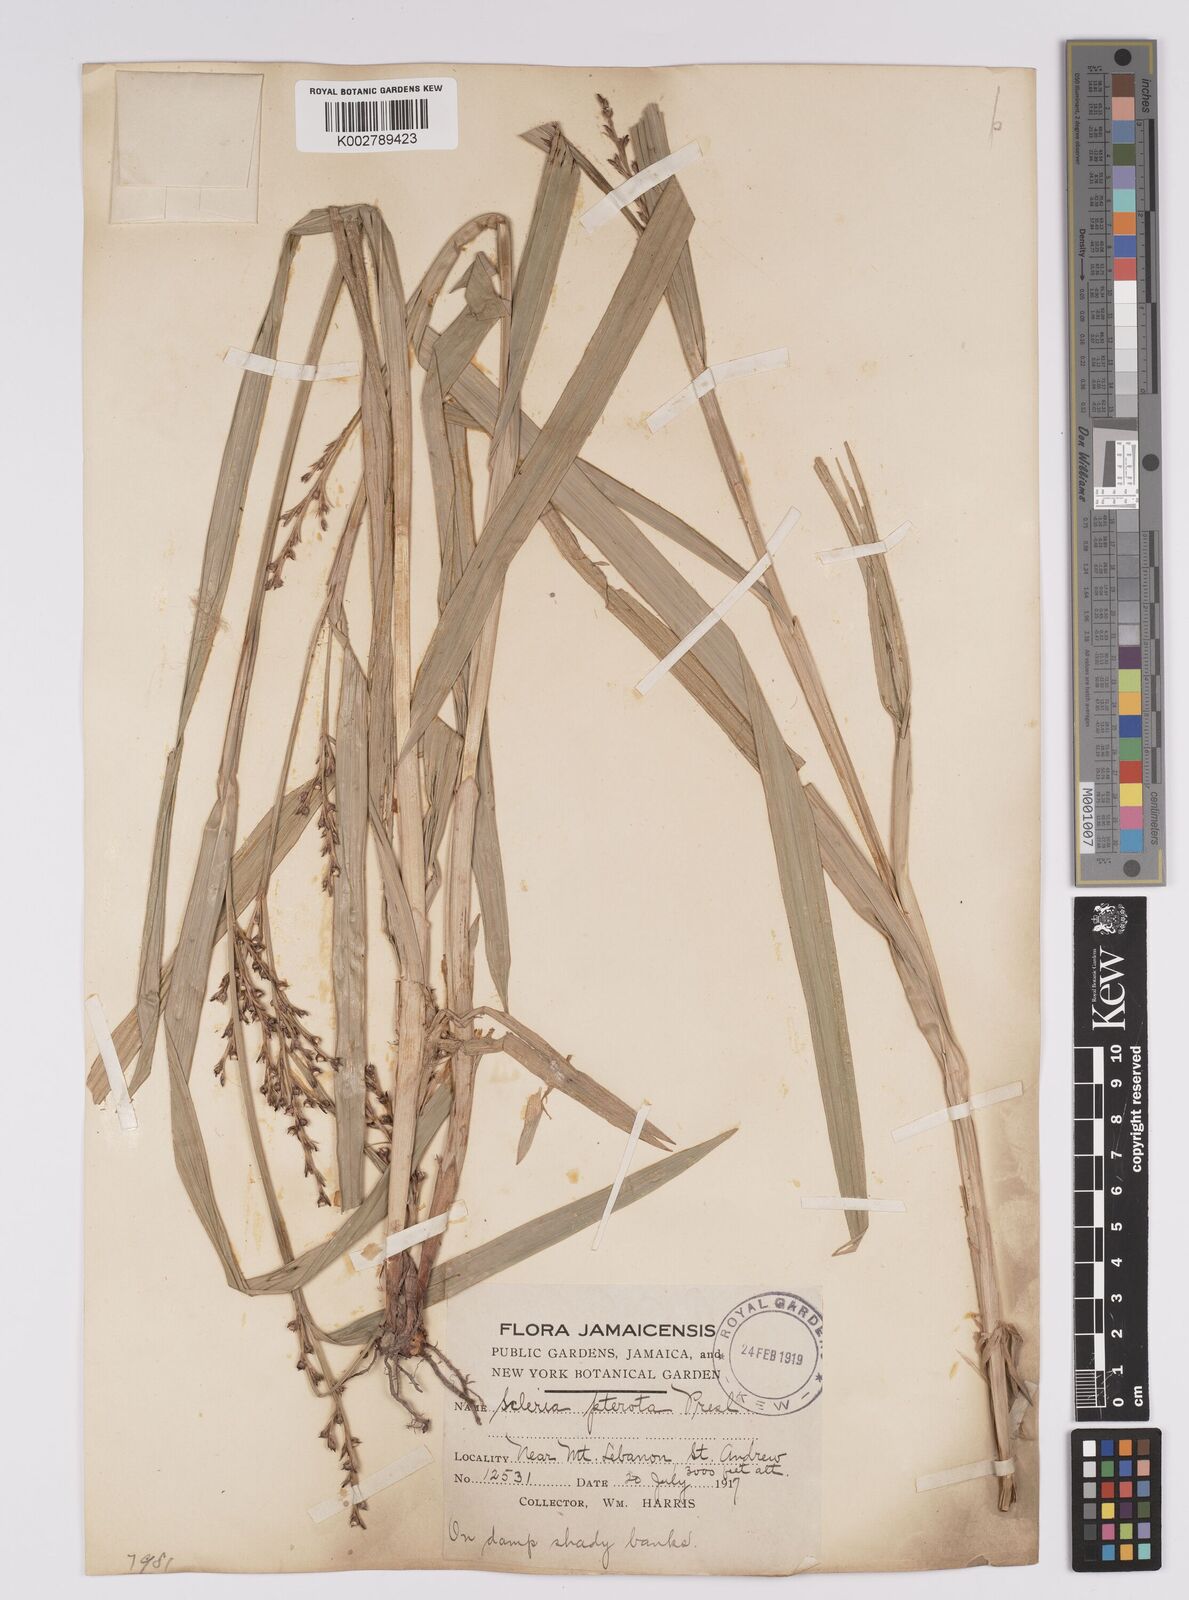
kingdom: Plantae
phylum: Tracheophyta
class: Liliopsida
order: Poales
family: Cyperaceae
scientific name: Cyperaceae
